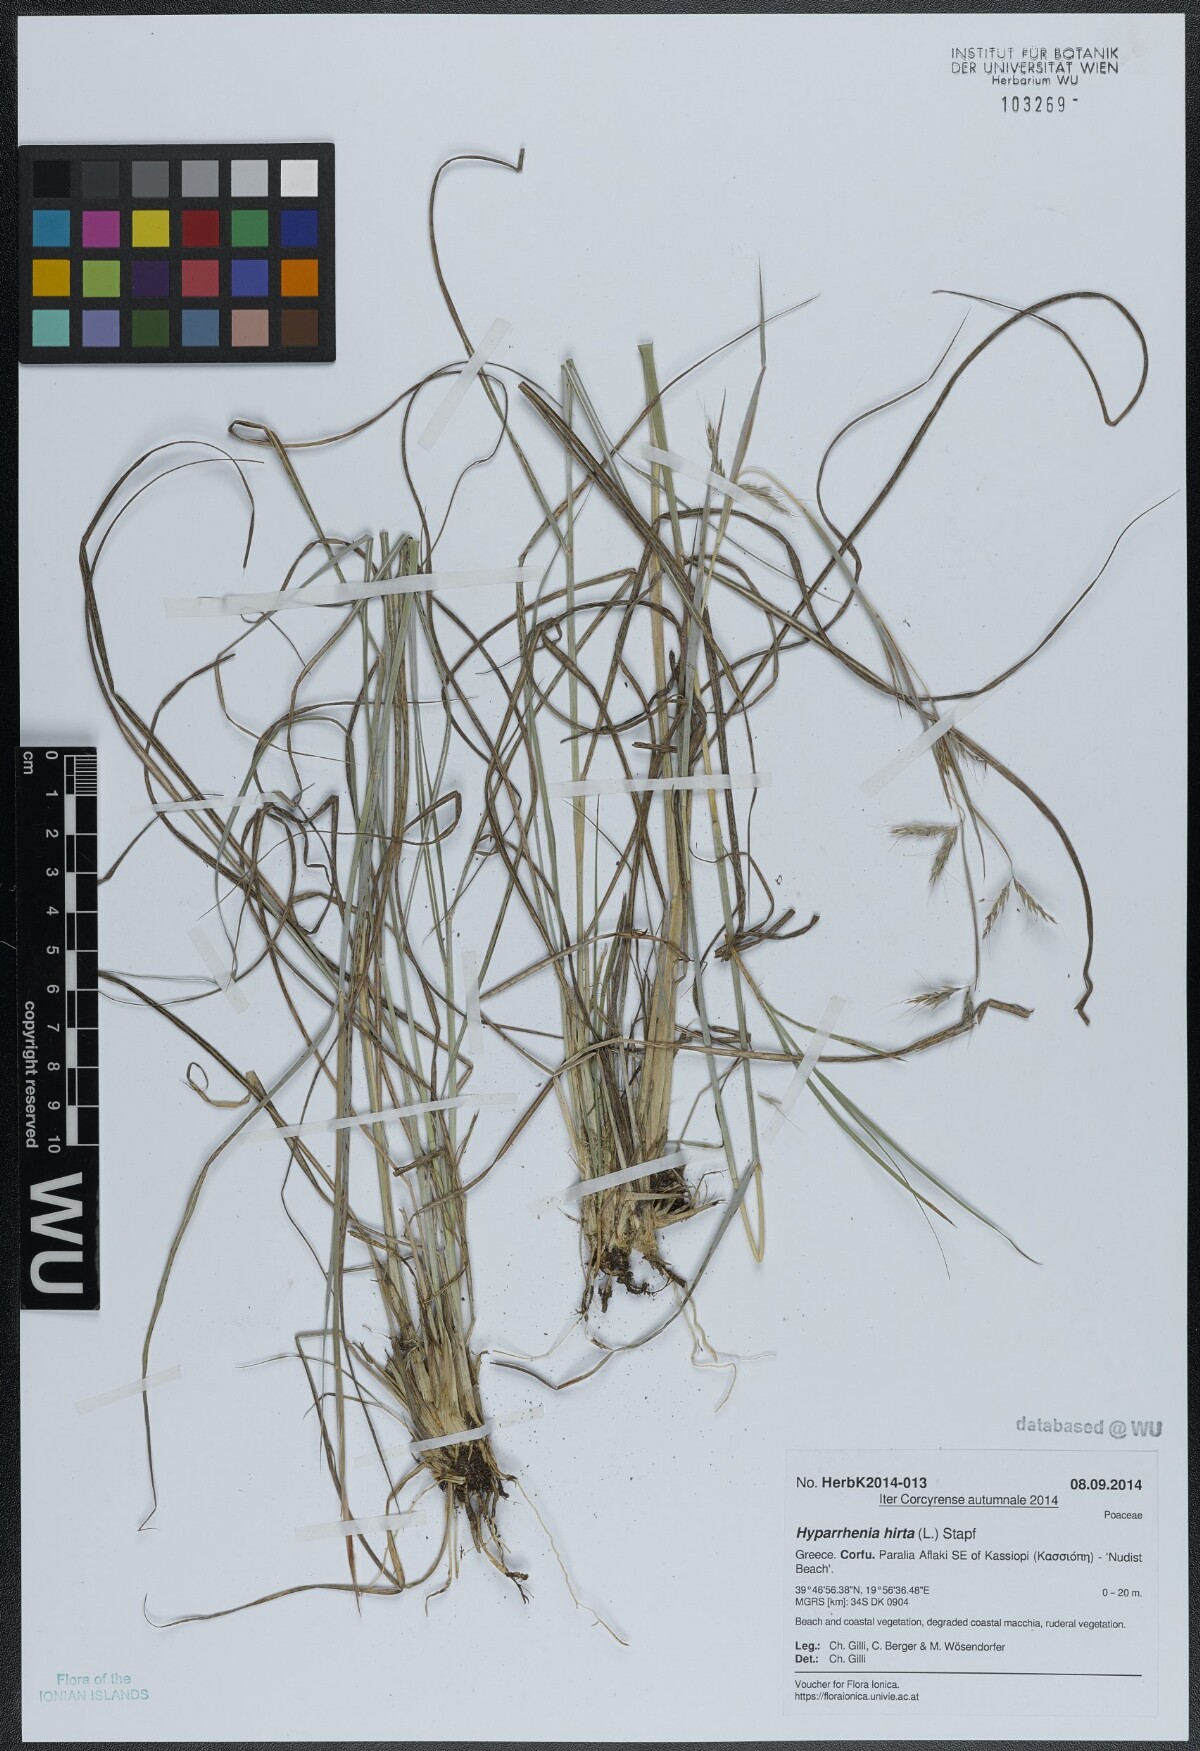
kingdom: Plantae
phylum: Tracheophyta
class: Liliopsida
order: Poales
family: Poaceae
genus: Hyparrhenia
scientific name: Hyparrhenia hirta
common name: Thatching grass
